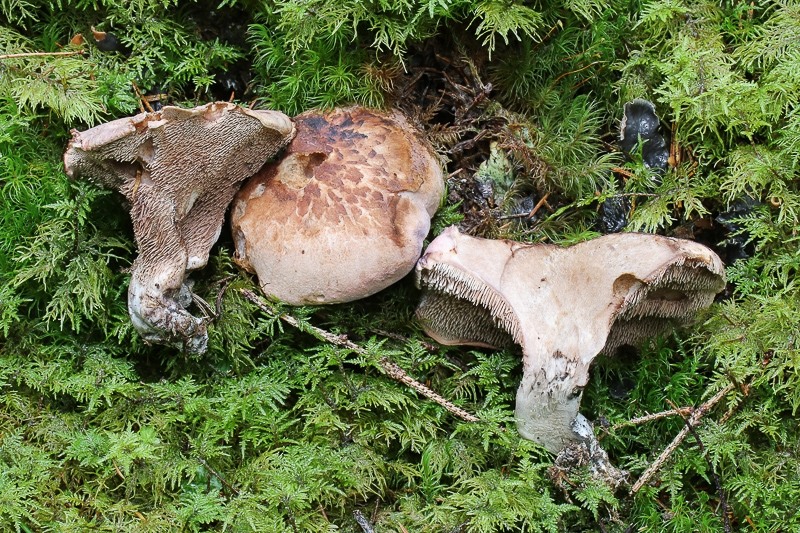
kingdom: Fungi
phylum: Basidiomycota
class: Agaricomycetes
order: Thelephorales
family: Bankeraceae
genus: Hydnellum
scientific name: Hydnellum glaucopus
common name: Greenfoot tooth
